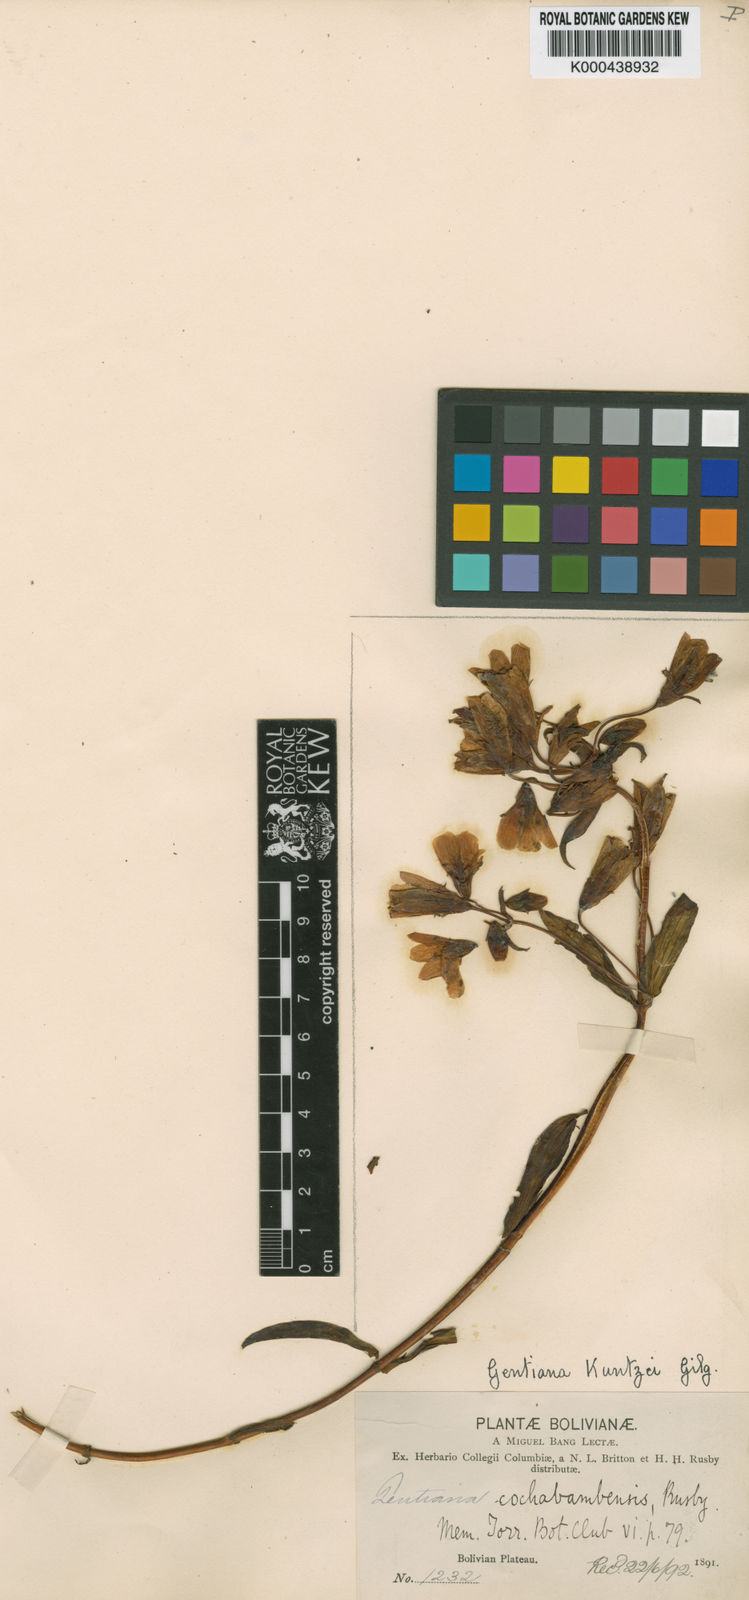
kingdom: Plantae
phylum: Tracheophyta
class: Magnoliopsida
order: Gentianales
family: Gentianaceae
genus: Gentiana
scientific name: Gentiana
